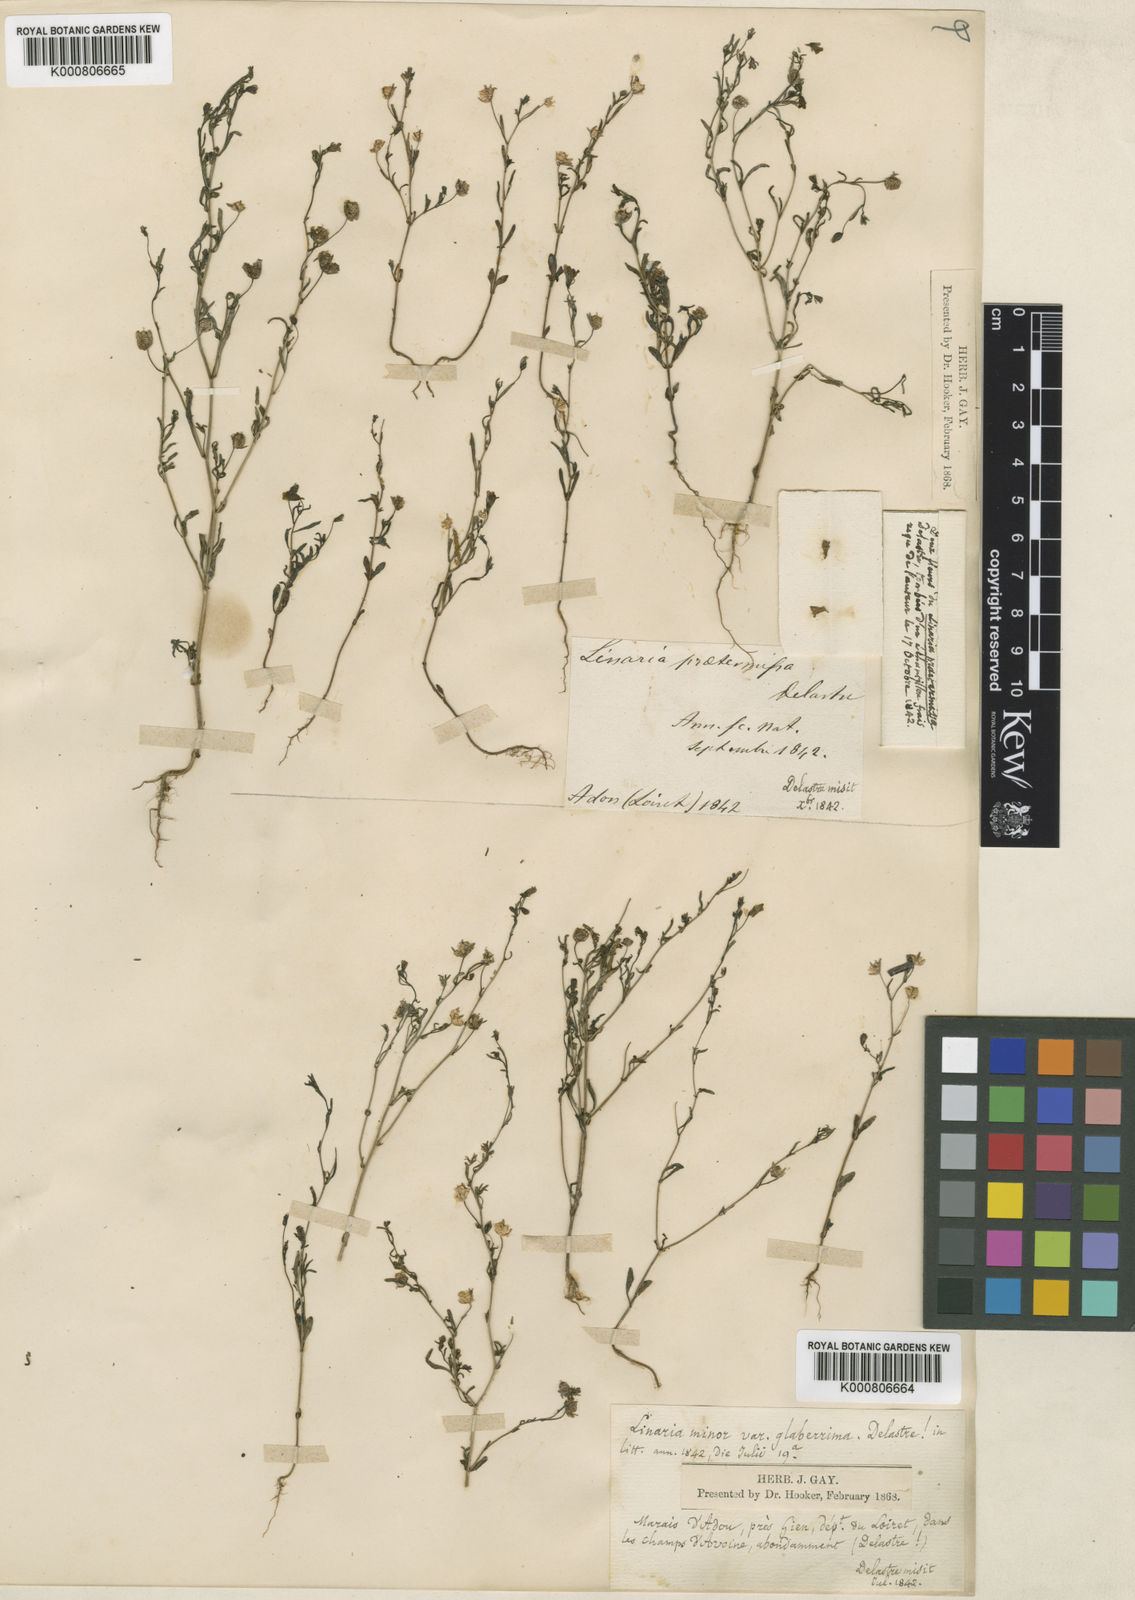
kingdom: Plantae
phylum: Tracheophyta
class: Magnoliopsida
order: Lamiales
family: Plantaginaceae
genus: Chaenorhinum
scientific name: Chaenorhinum minus
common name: Dwarf snapdragon
